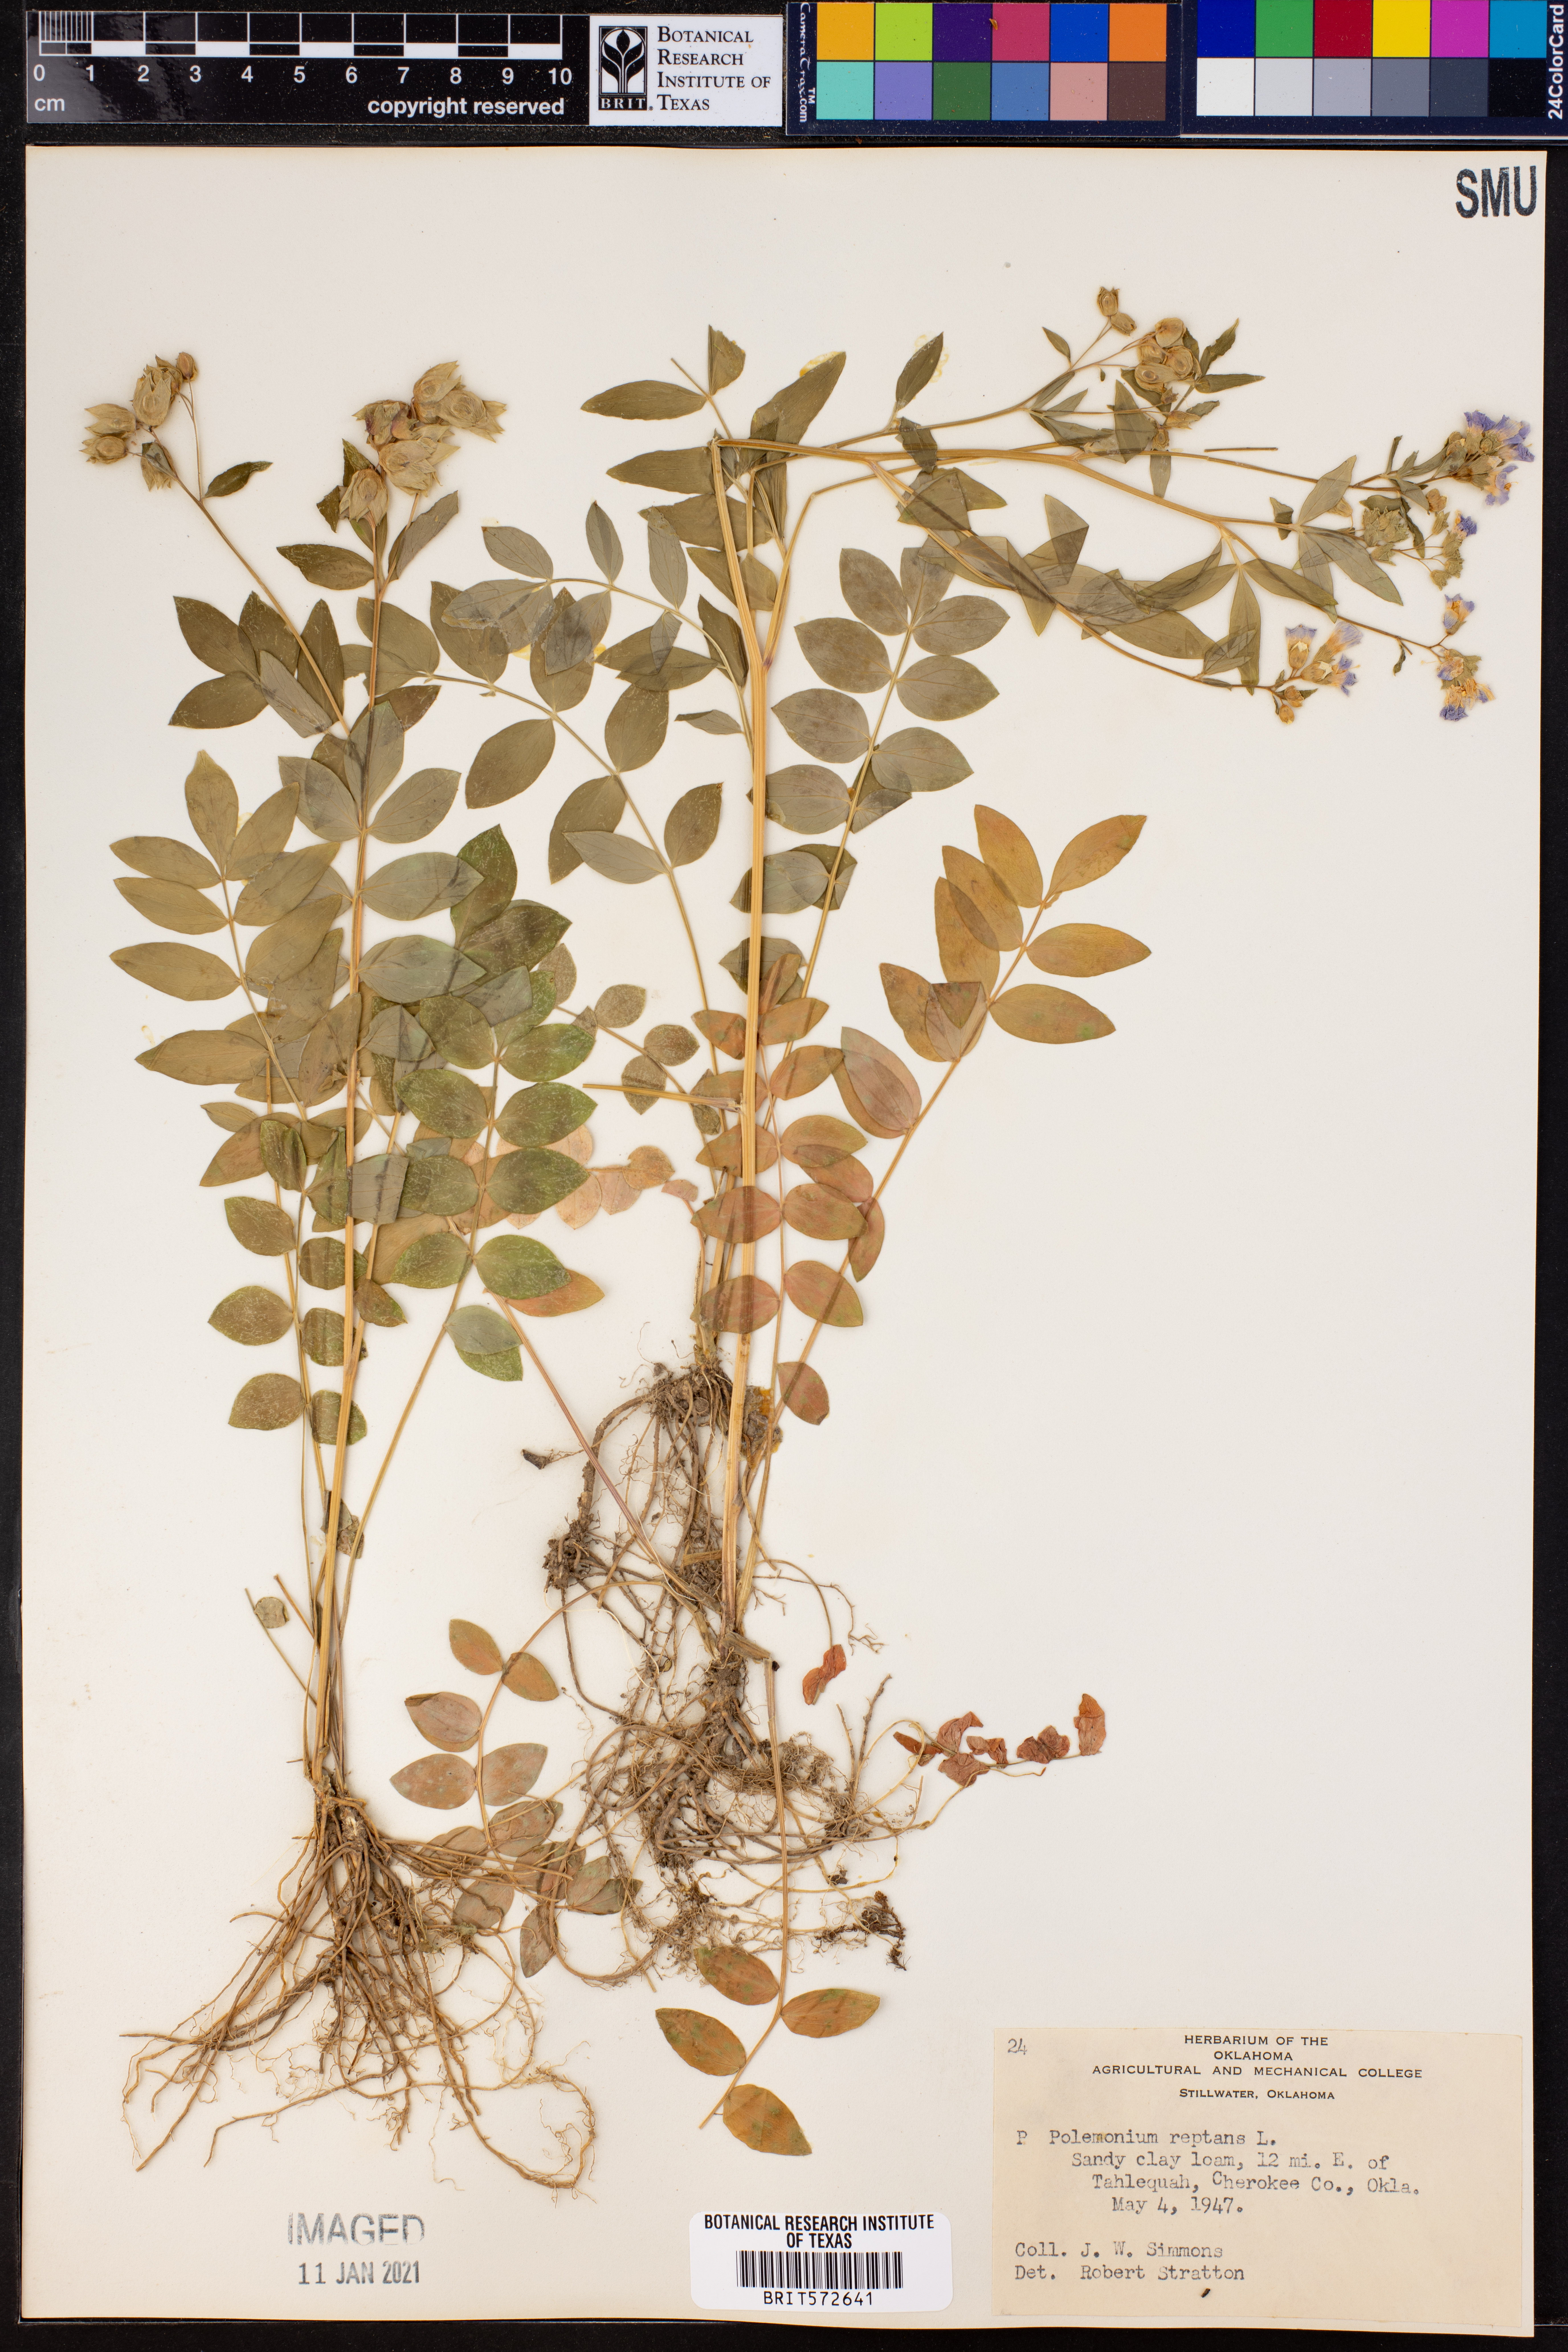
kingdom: Plantae
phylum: Tracheophyta
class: Magnoliopsida
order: Ericales
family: Polemoniaceae
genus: Polemonium
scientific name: Polemonium reptans
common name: Creeping jacob's-ladder
